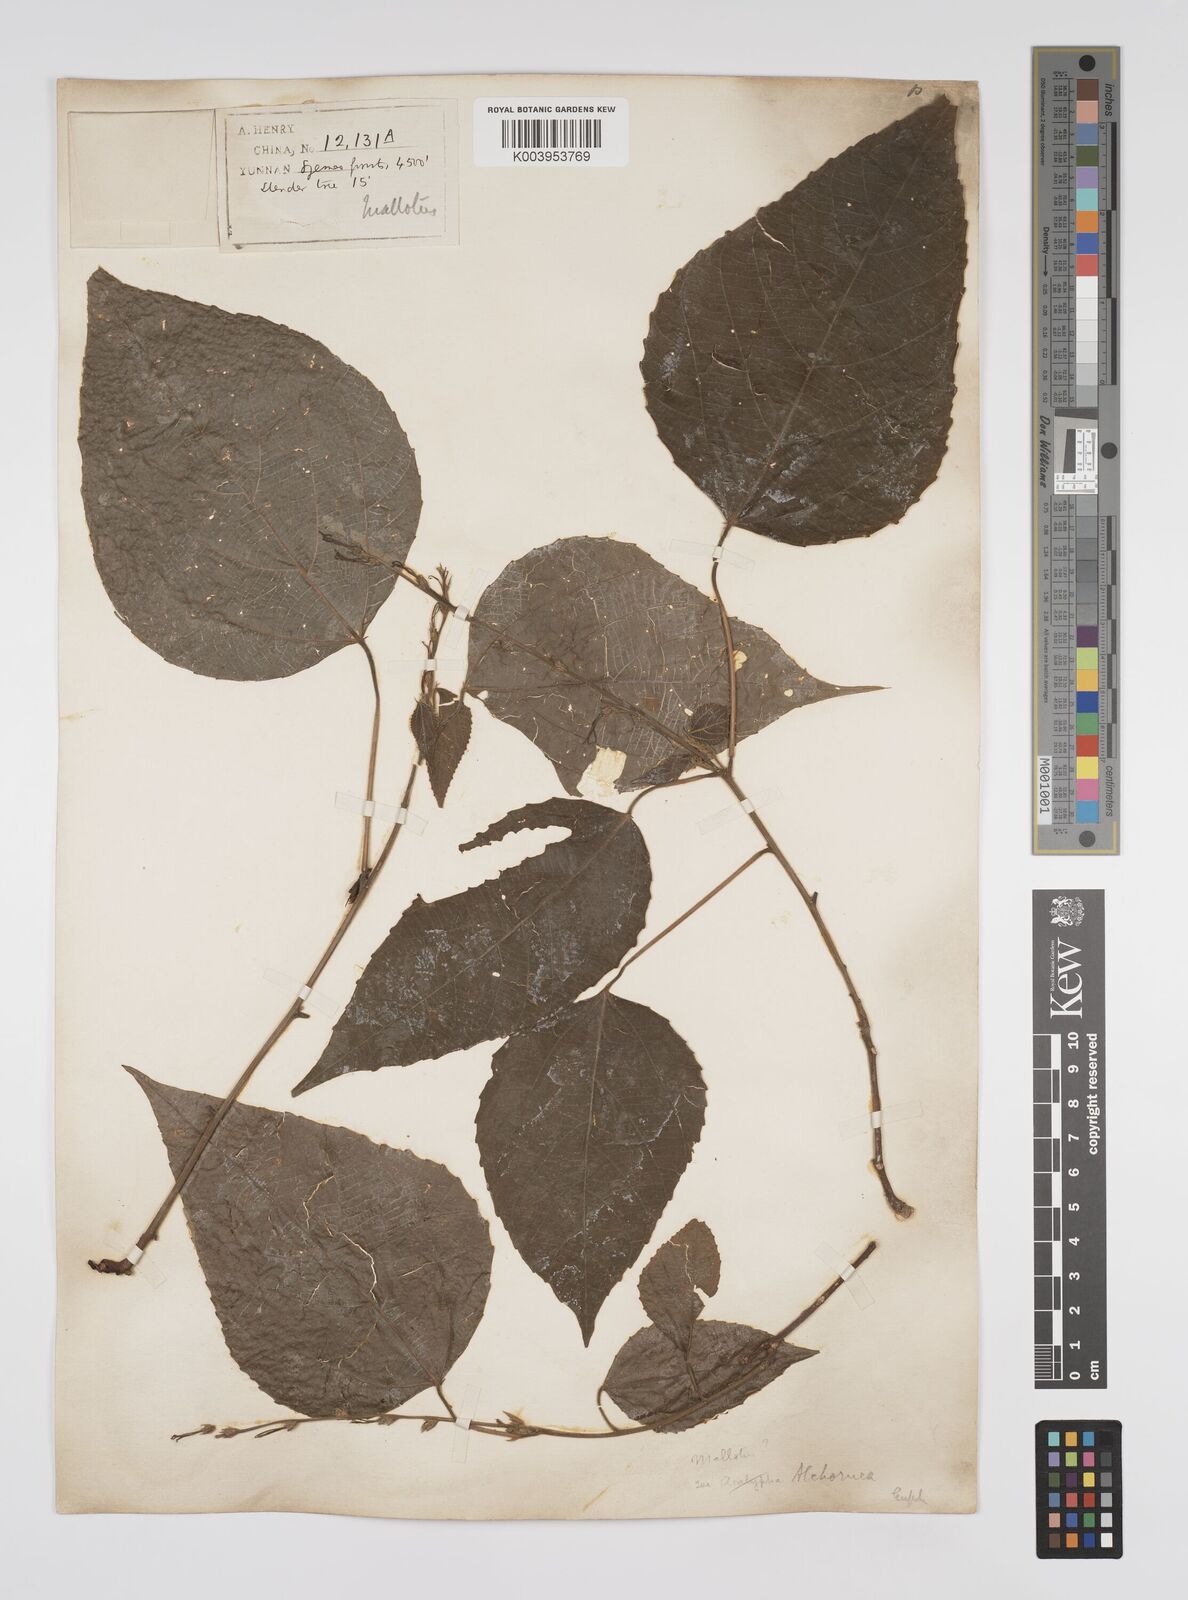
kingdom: Plantae
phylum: Tracheophyta
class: Magnoliopsida
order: Malpighiales
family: Euphorbiaceae
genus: Alchornea
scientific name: Alchornea tiliifolia
